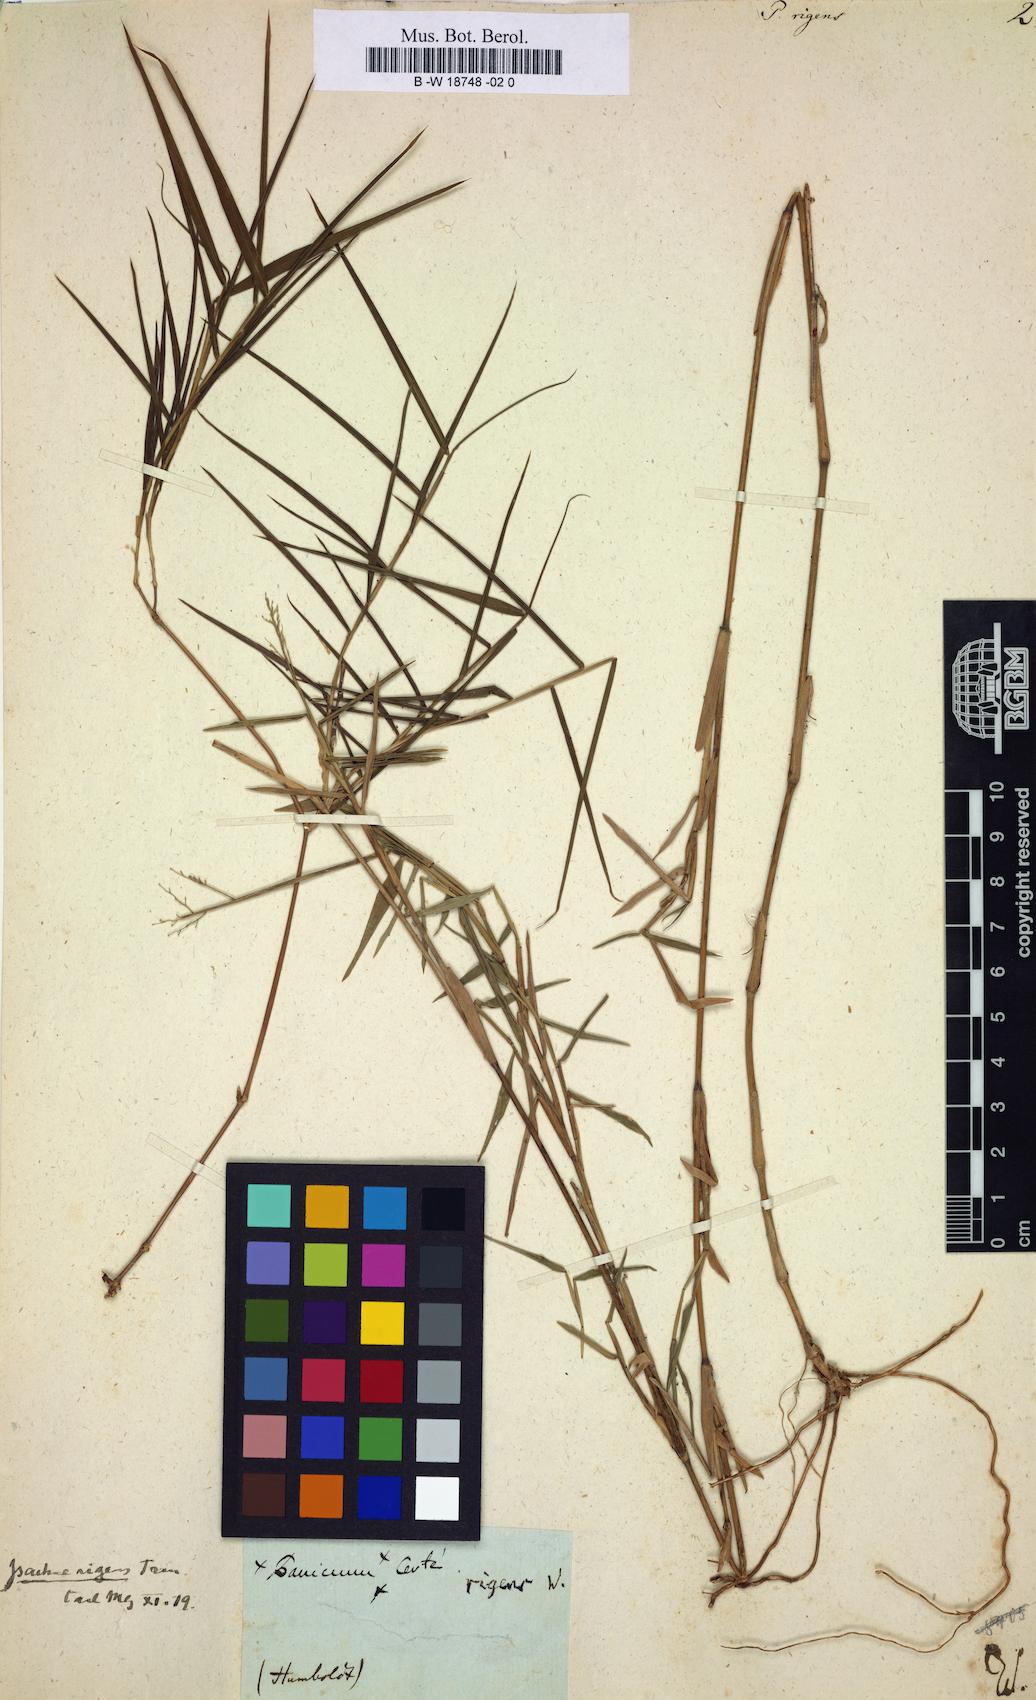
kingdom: Plantae
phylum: Tracheophyta
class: Liliopsida
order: Poales
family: Poaceae
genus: Isachne
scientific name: Isachne rigens
